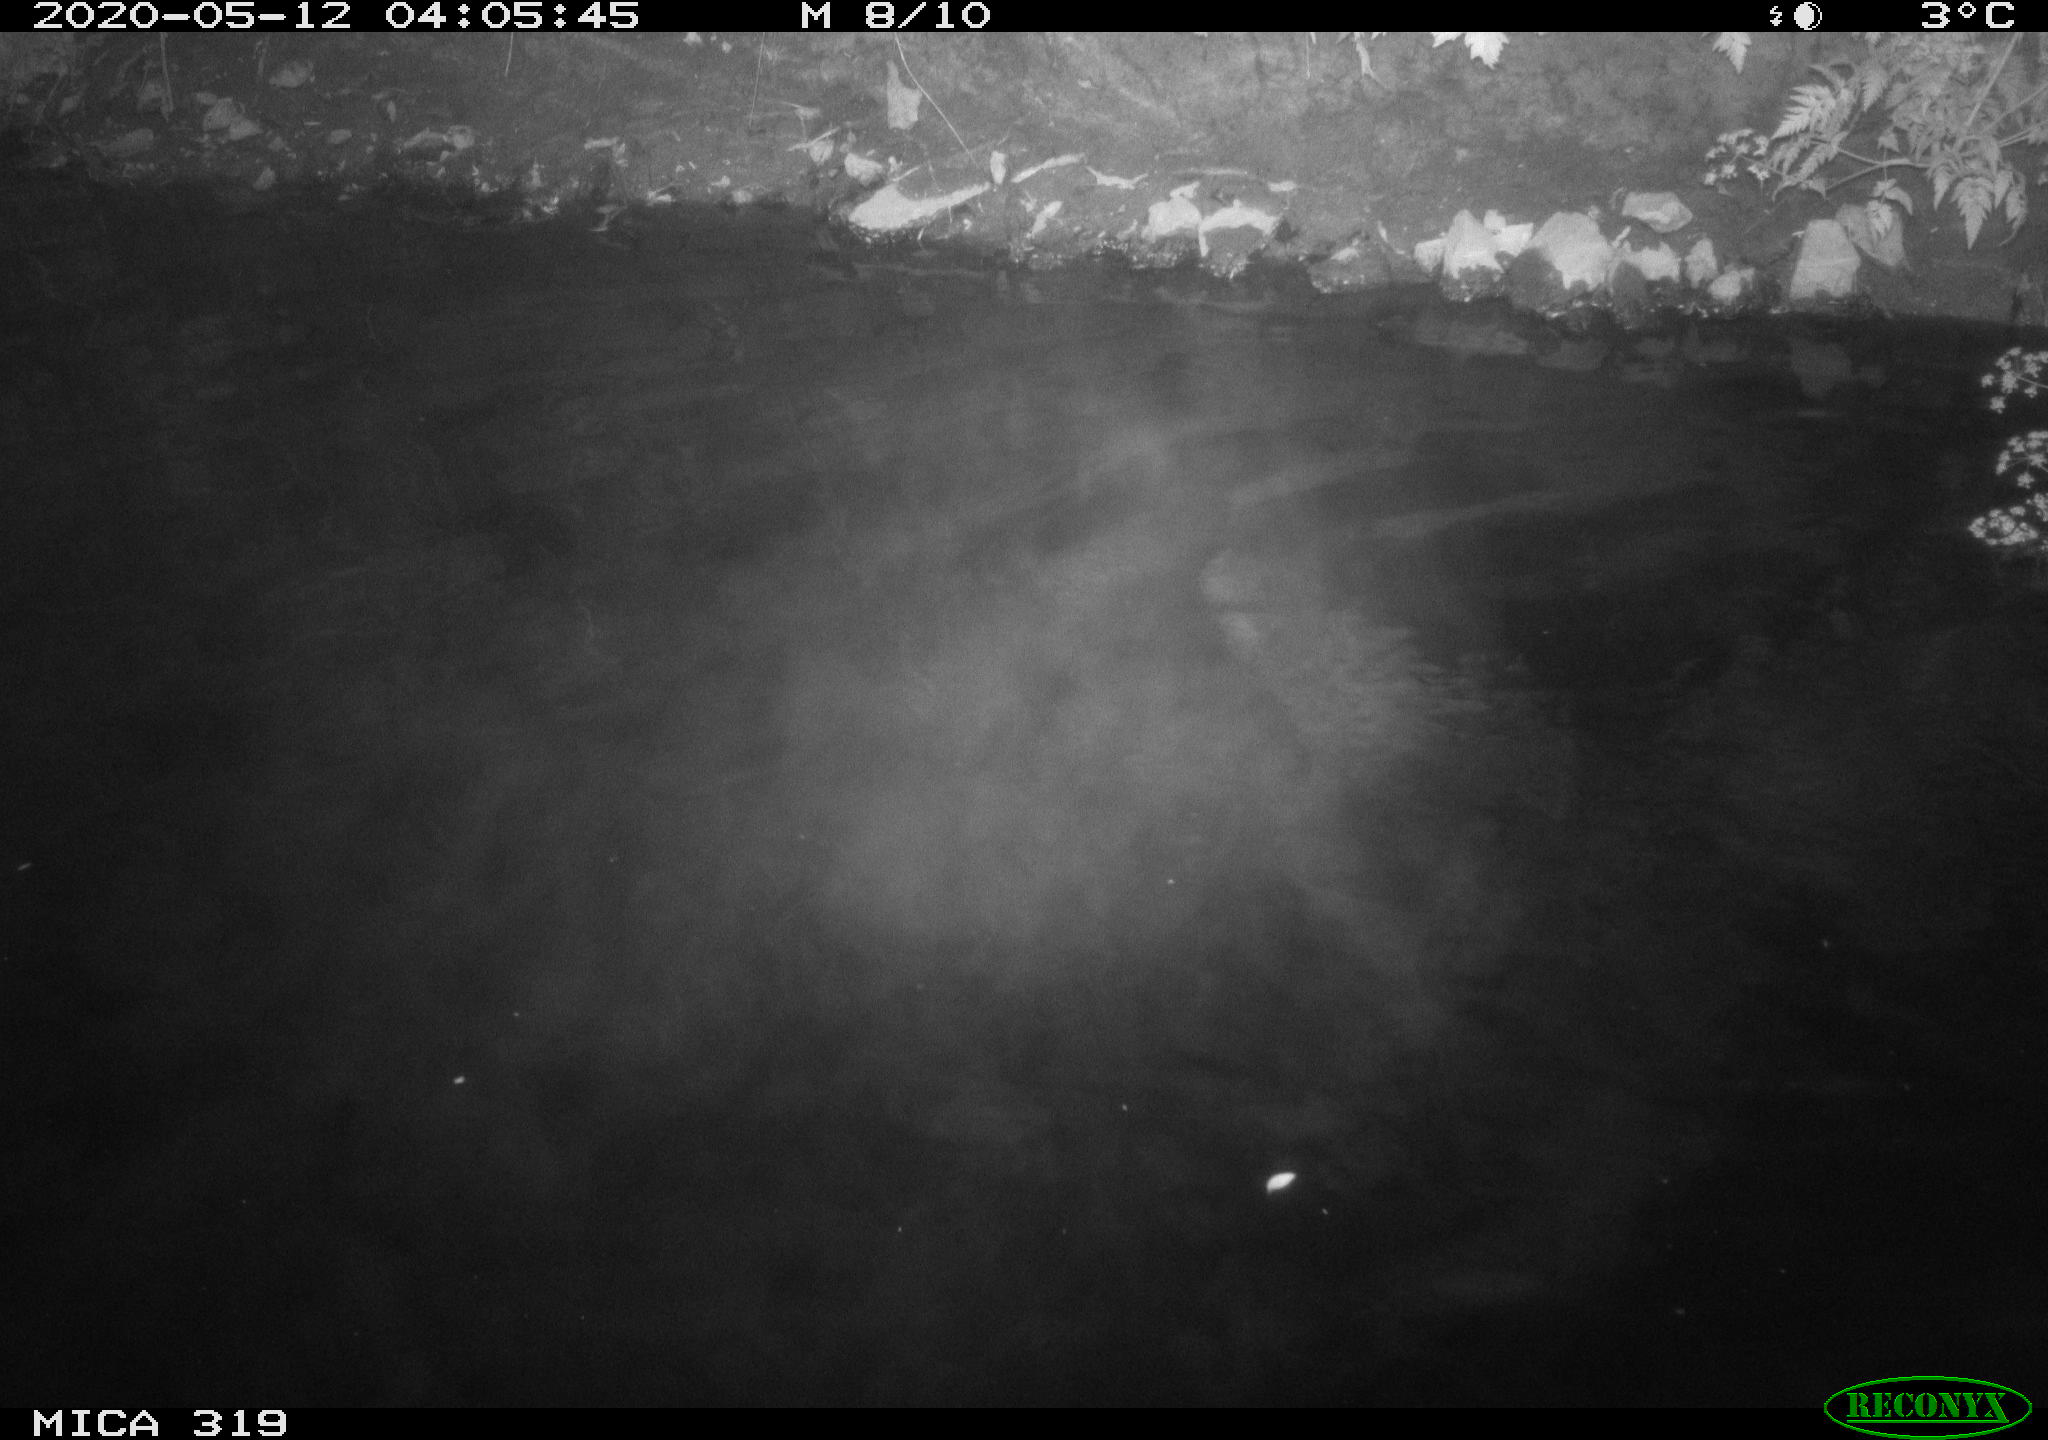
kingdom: Animalia
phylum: Chordata
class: Aves
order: Anseriformes
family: Anatidae
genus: Anas
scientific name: Anas platyrhynchos
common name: Mallard
